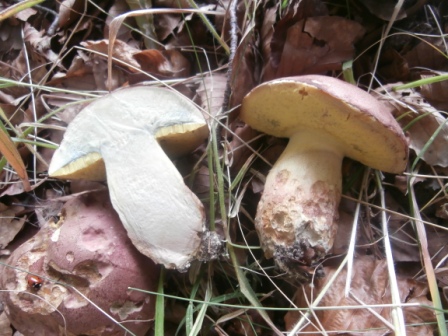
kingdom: Fungi
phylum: Basidiomycota
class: Agaricomycetes
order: Boletales
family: Boletaceae
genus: Butyriboletus
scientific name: Butyriboletus fuscoroseus
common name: brunrosa rørhat
